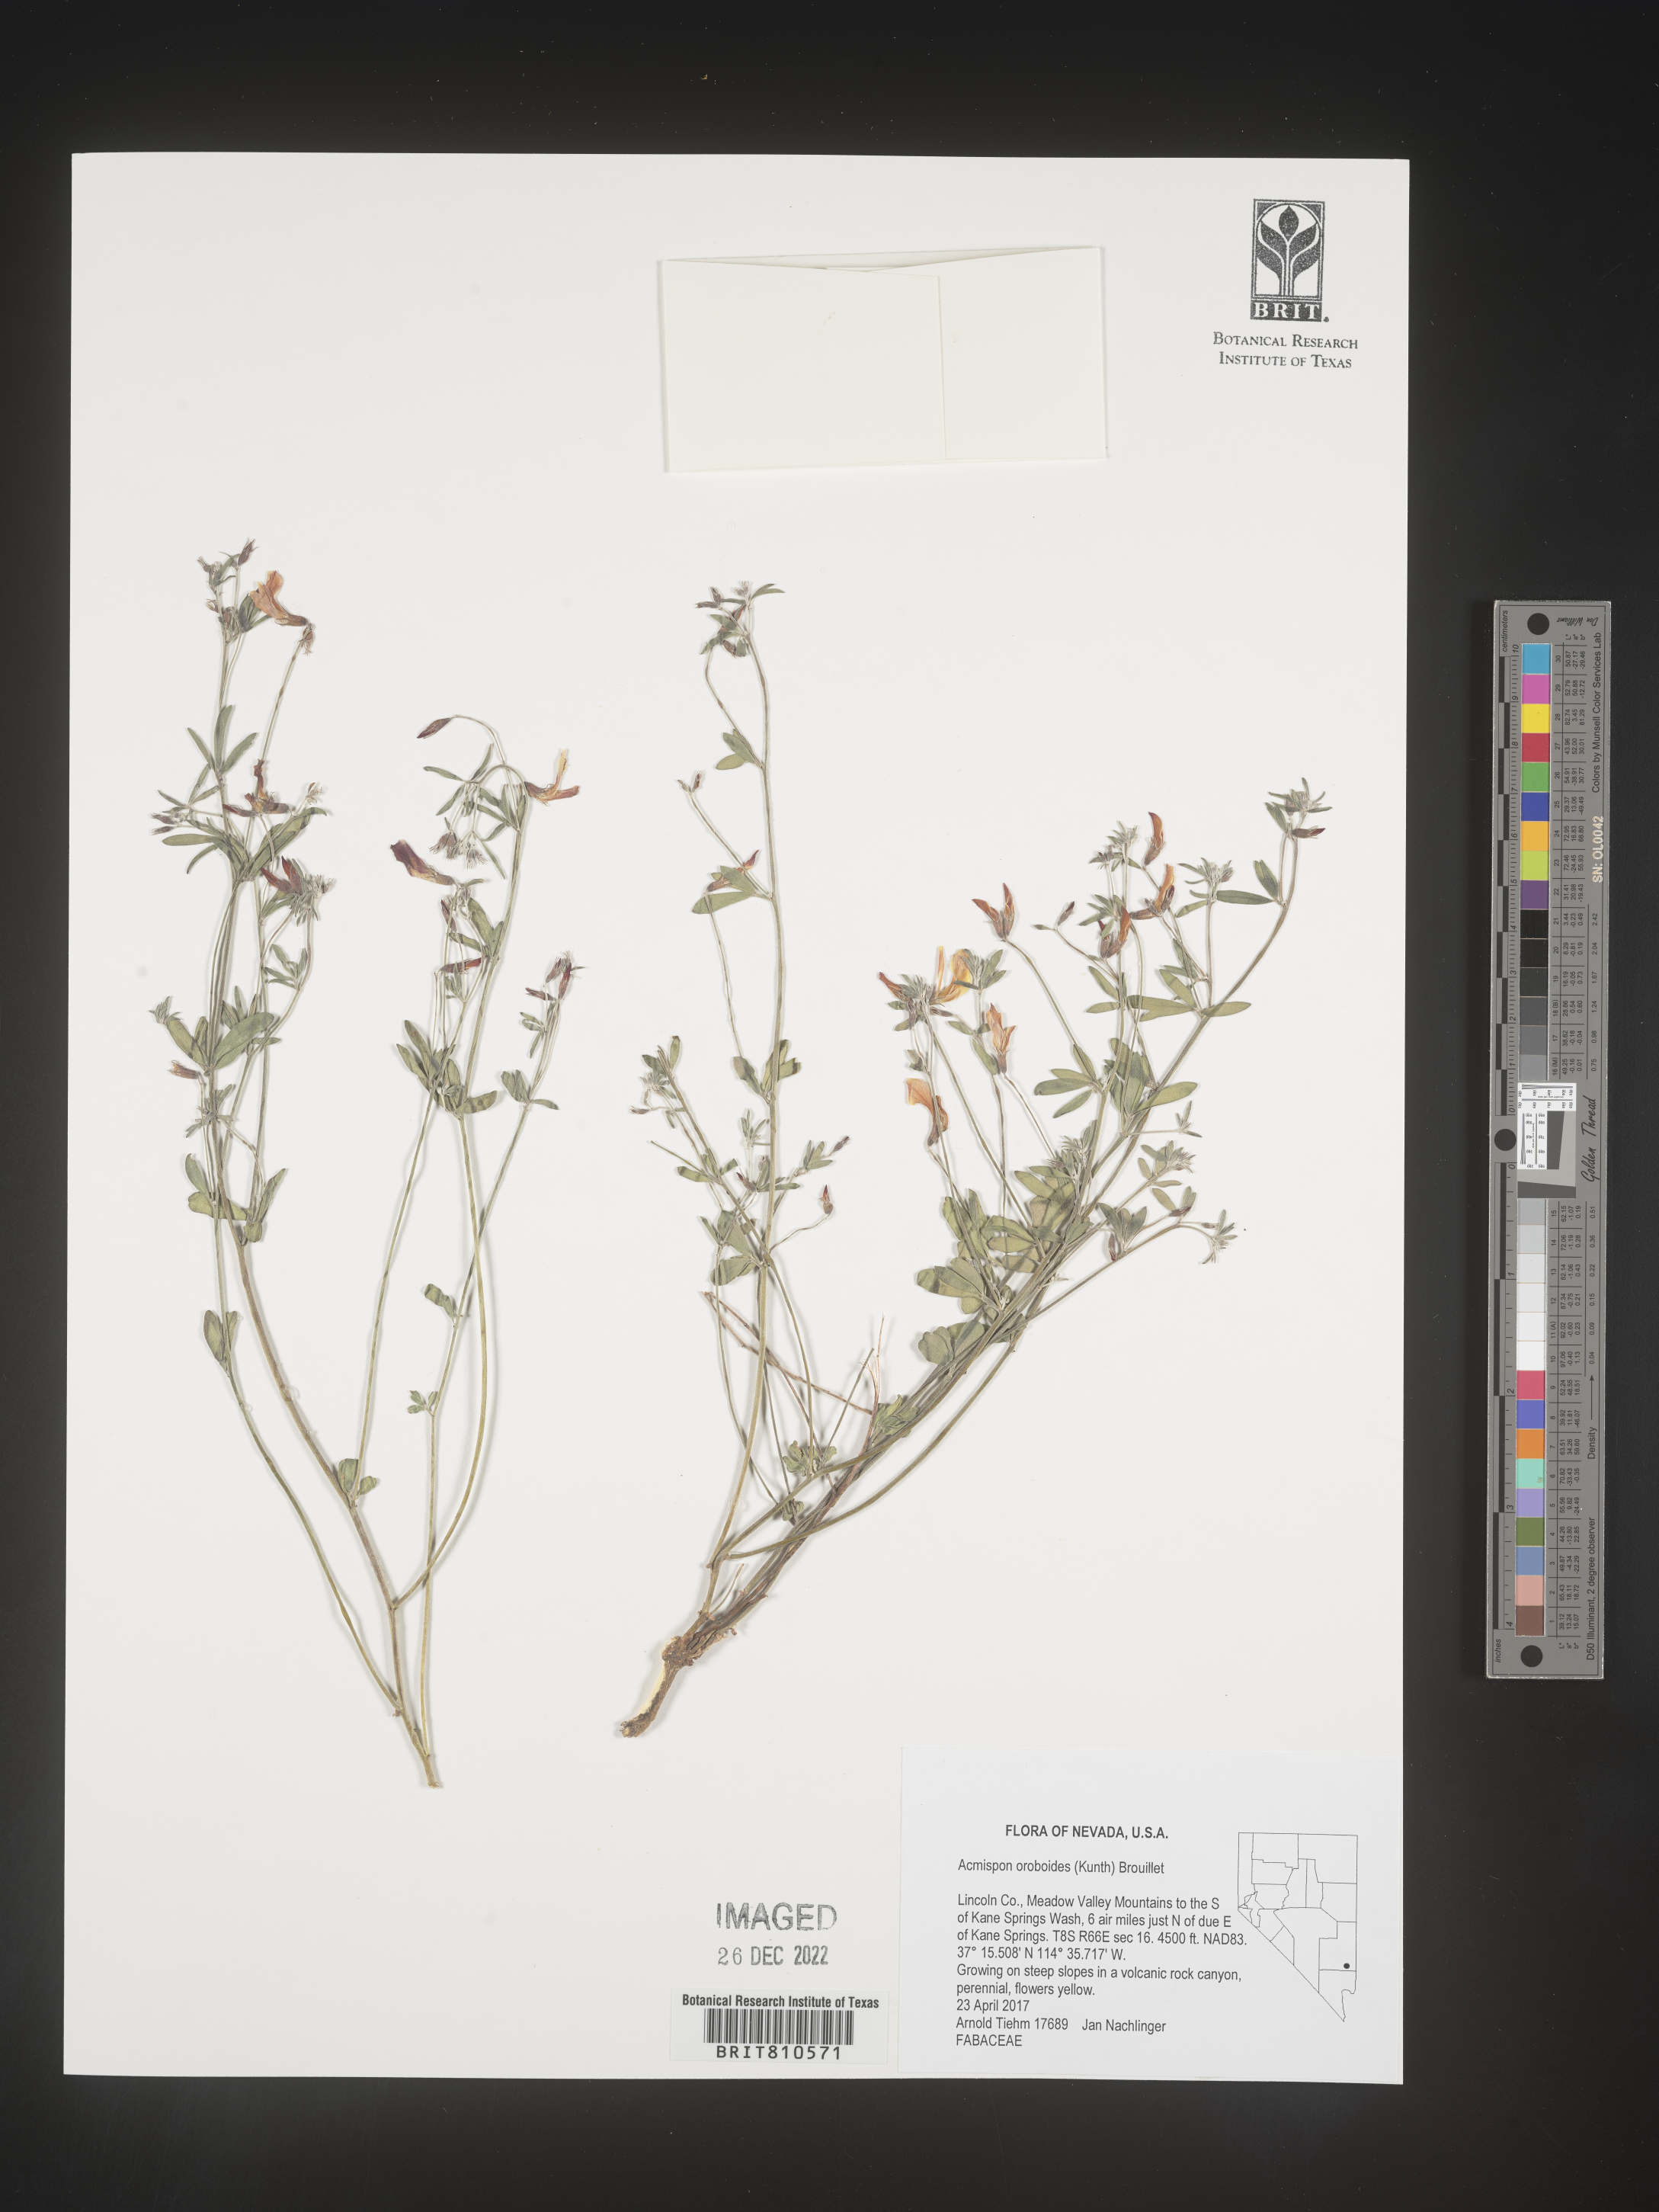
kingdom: Plantae
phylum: Tracheophyta
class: Magnoliopsida
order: Fabales
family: Fabaceae
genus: Acmispon
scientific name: Acmispon
